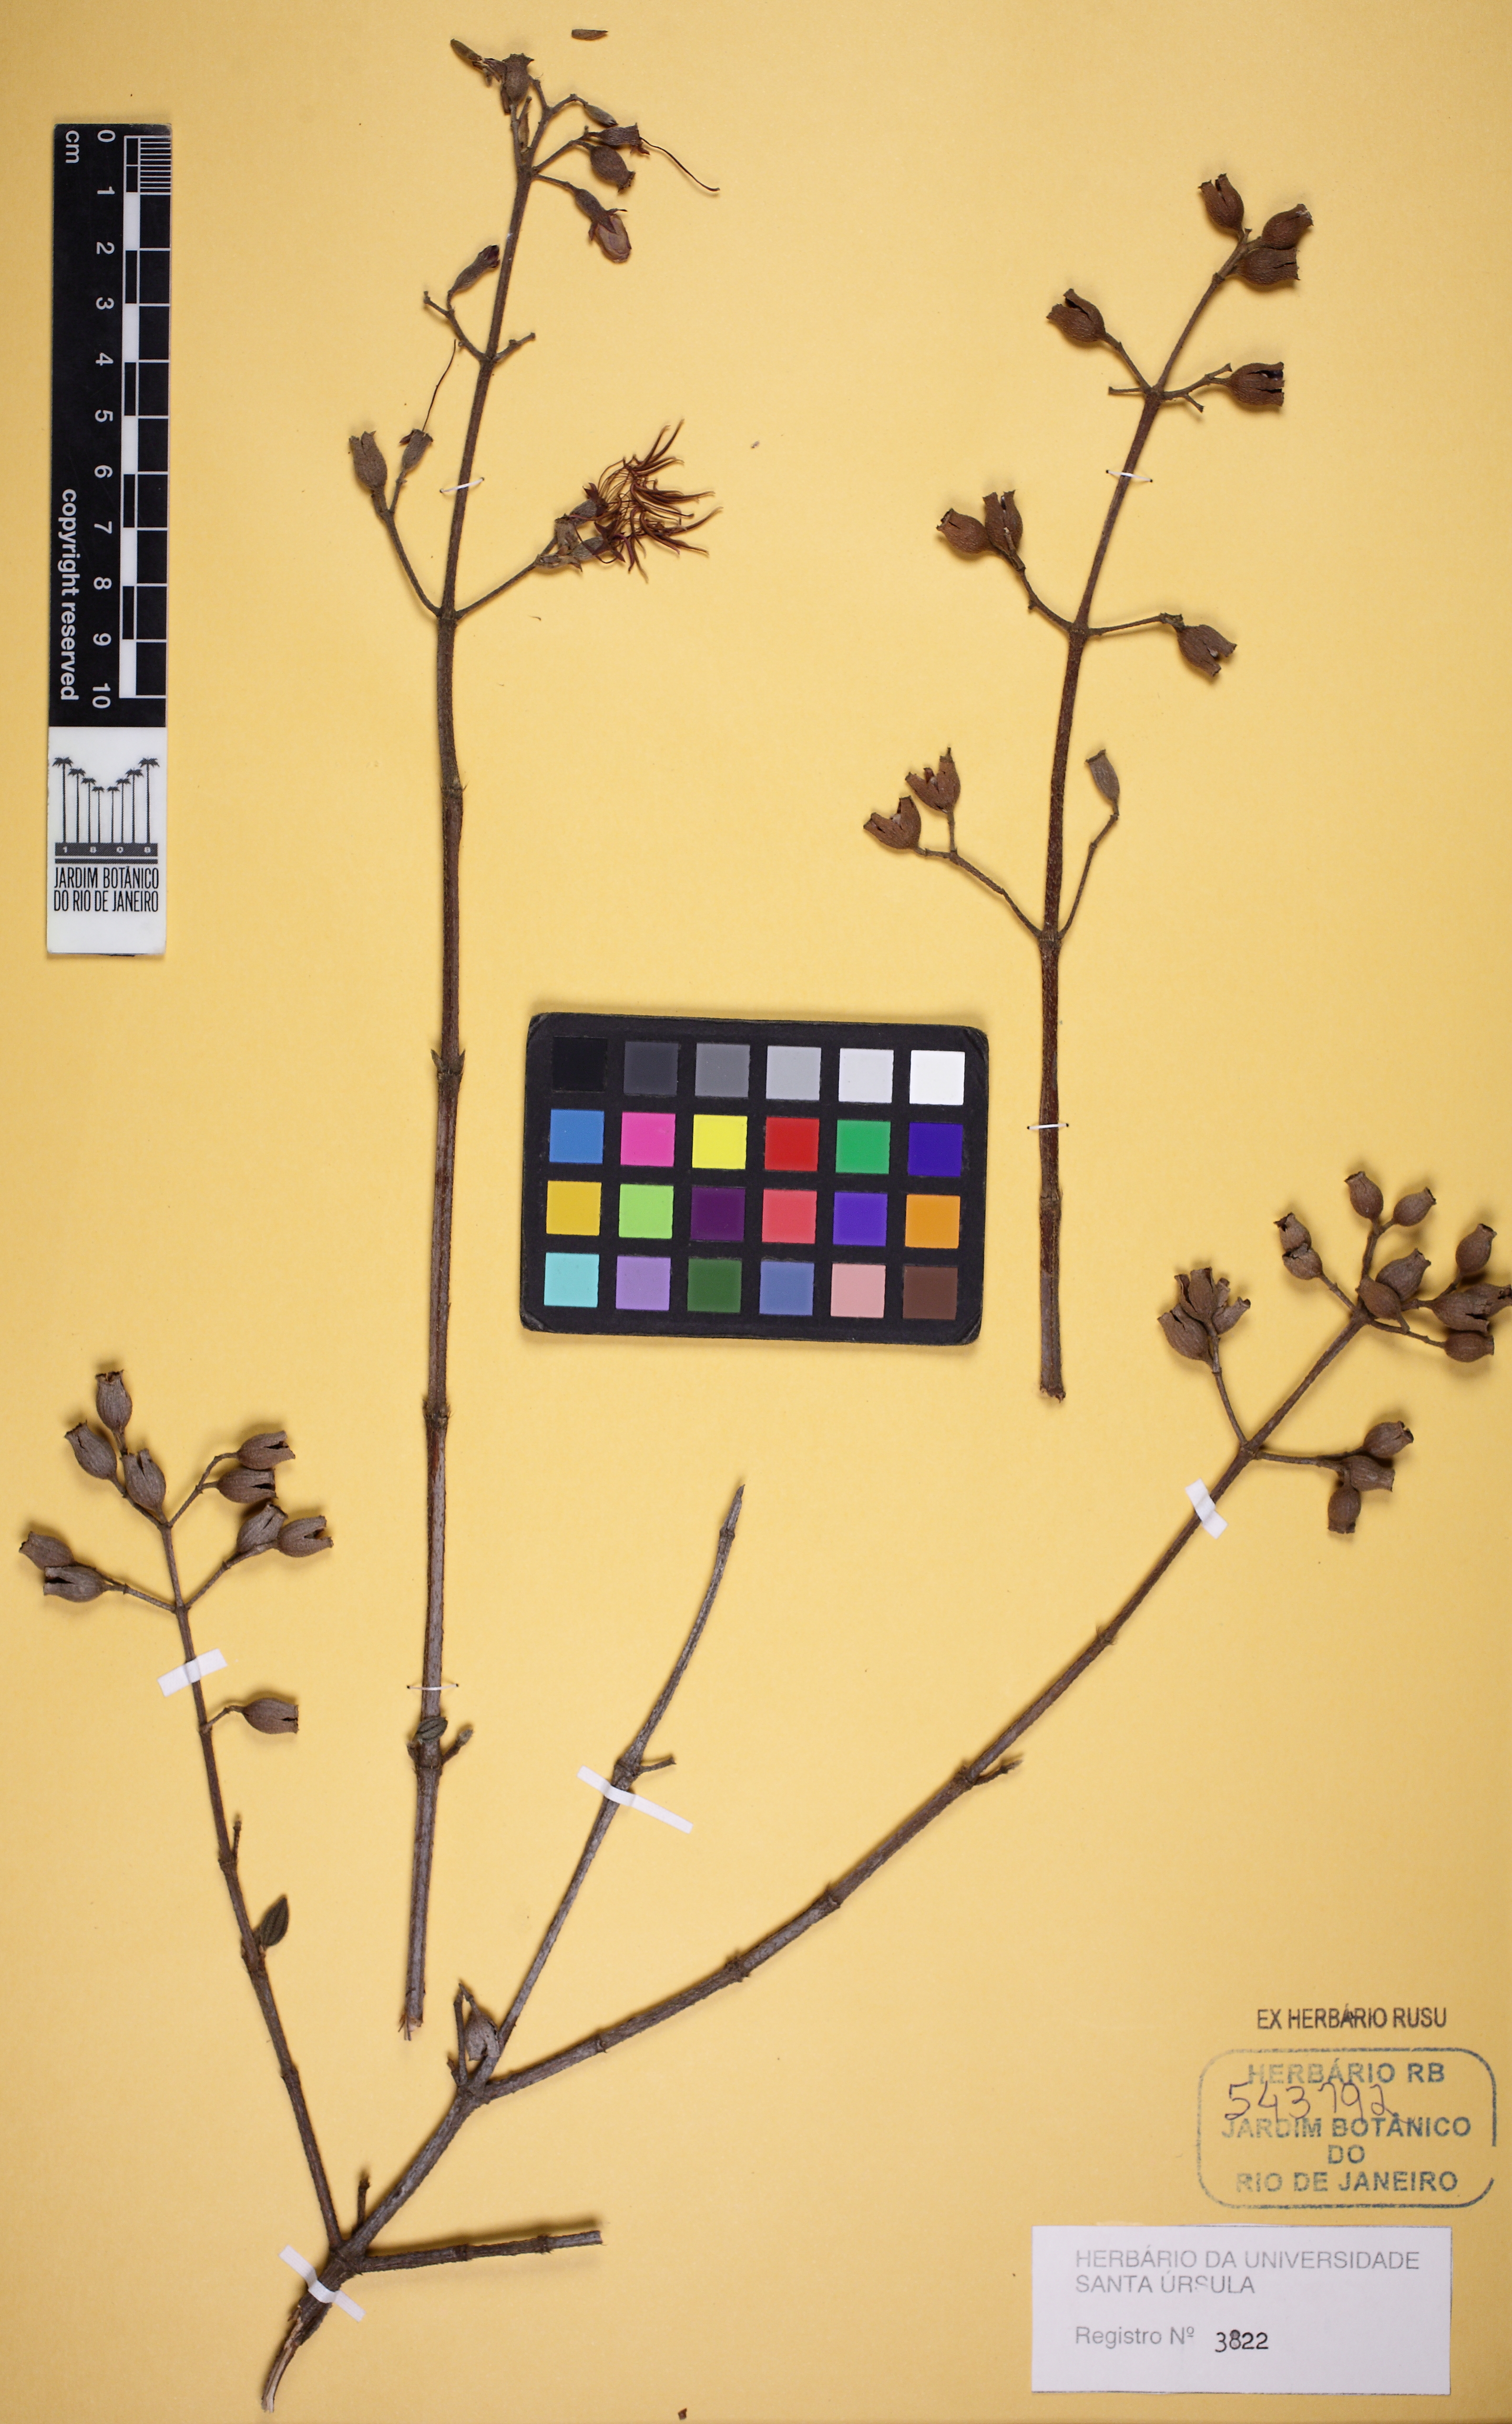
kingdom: Plantae
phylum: Tracheophyta
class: Magnoliopsida
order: Myrtales
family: Melastomataceae
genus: Pleroma
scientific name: Pleroma maximilianum
